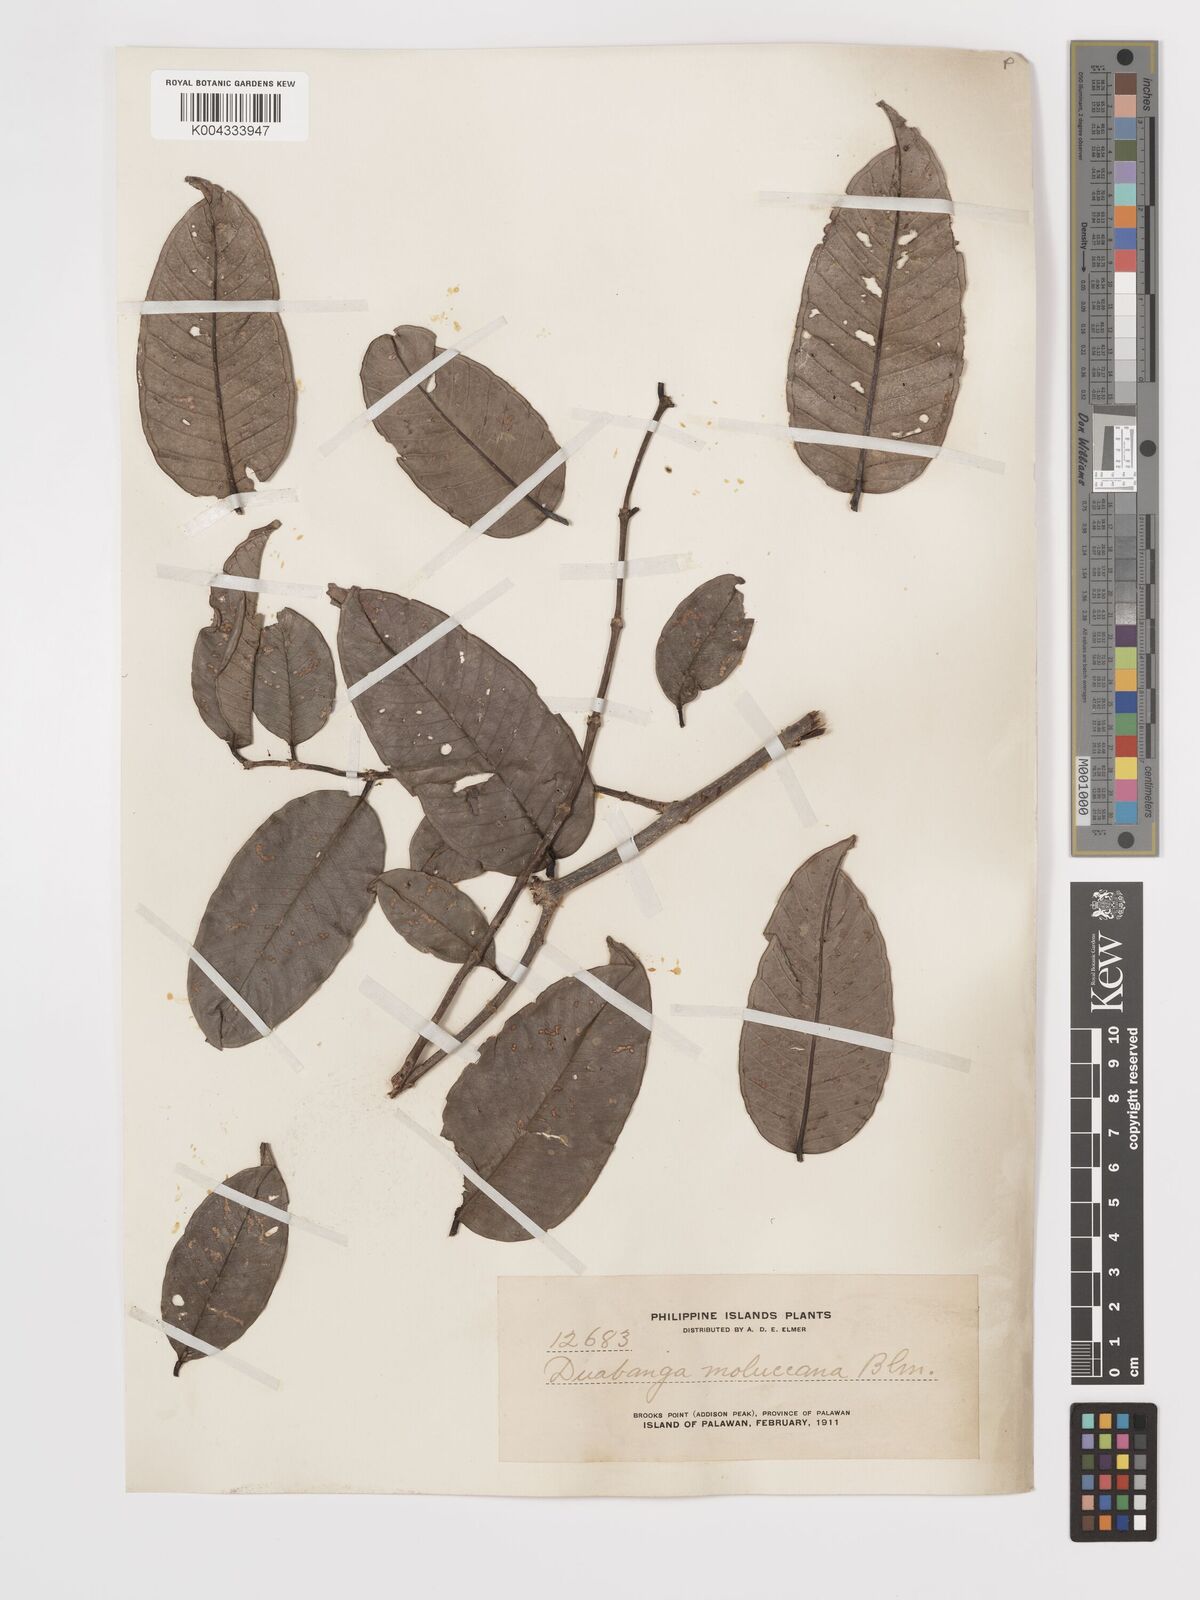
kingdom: Plantae
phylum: Tracheophyta
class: Magnoliopsida
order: Myrtales
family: Lythraceae
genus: Duabanga
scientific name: Duabanga moluccana
